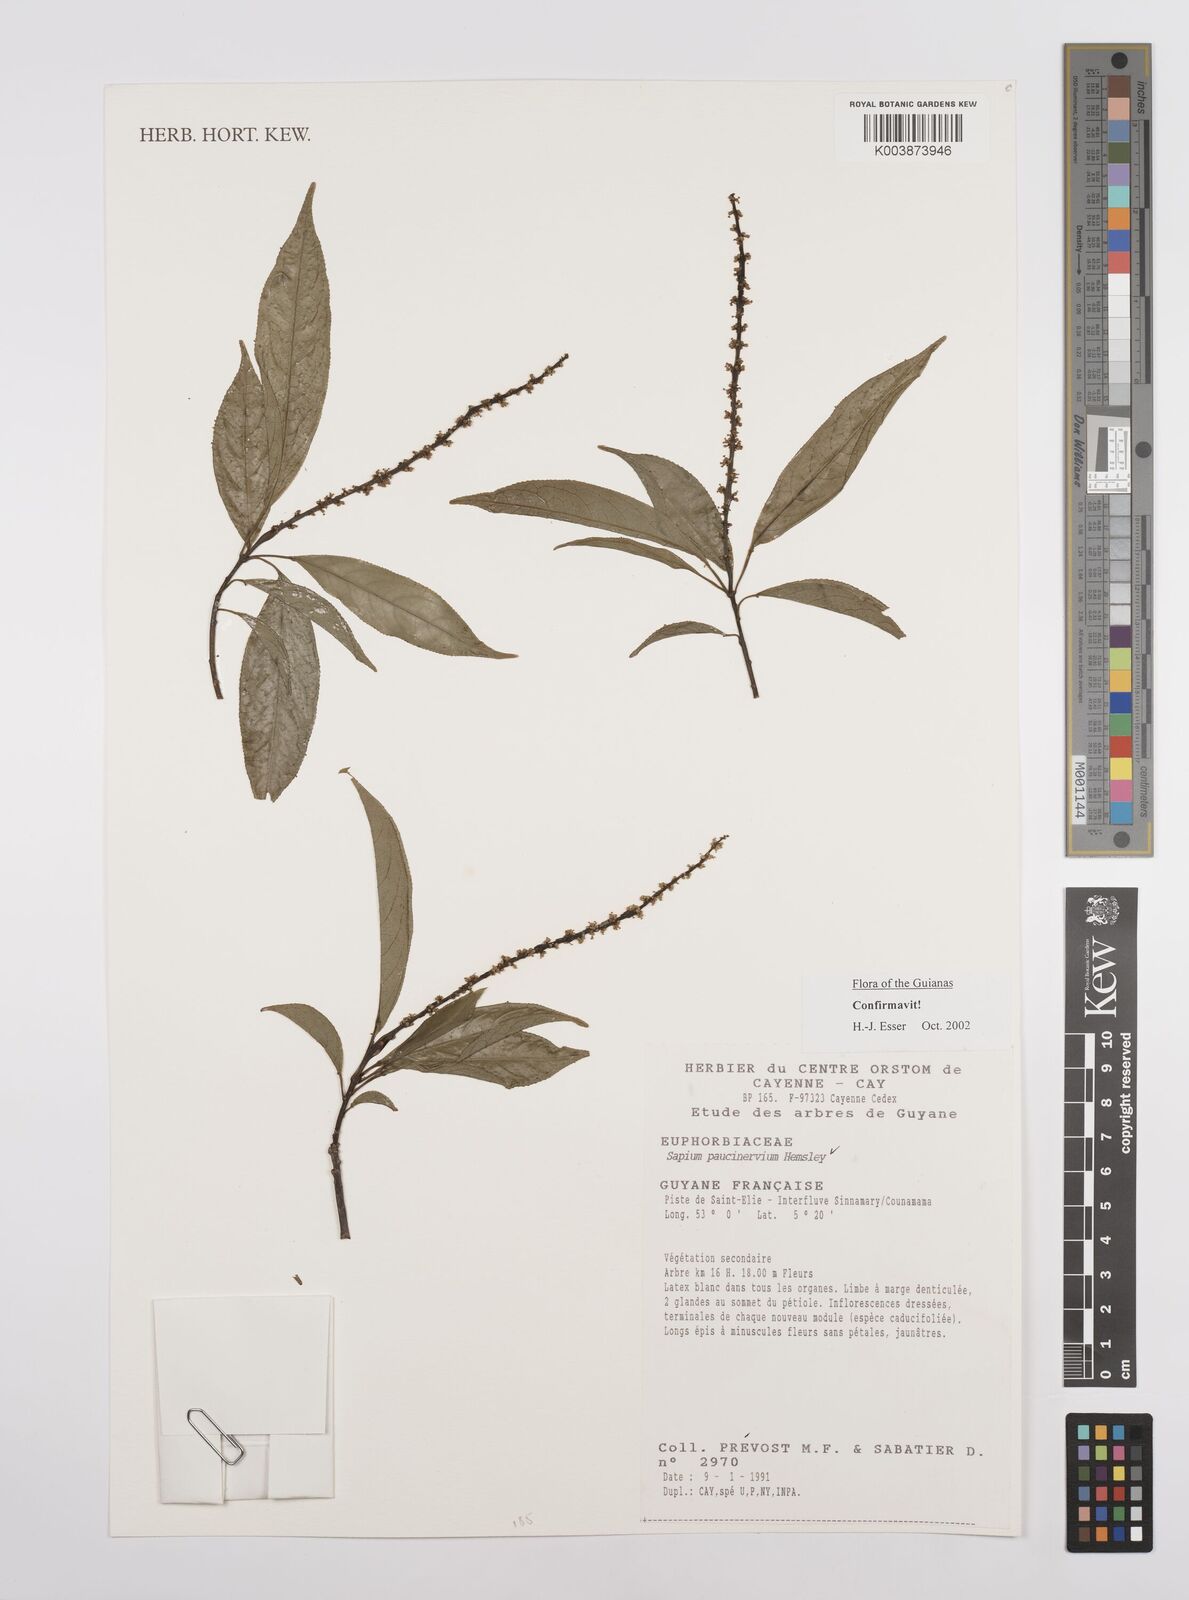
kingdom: Plantae
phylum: Tracheophyta
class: Magnoliopsida
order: Malpighiales
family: Euphorbiaceae
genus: Sapium
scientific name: Sapium paucinervium
